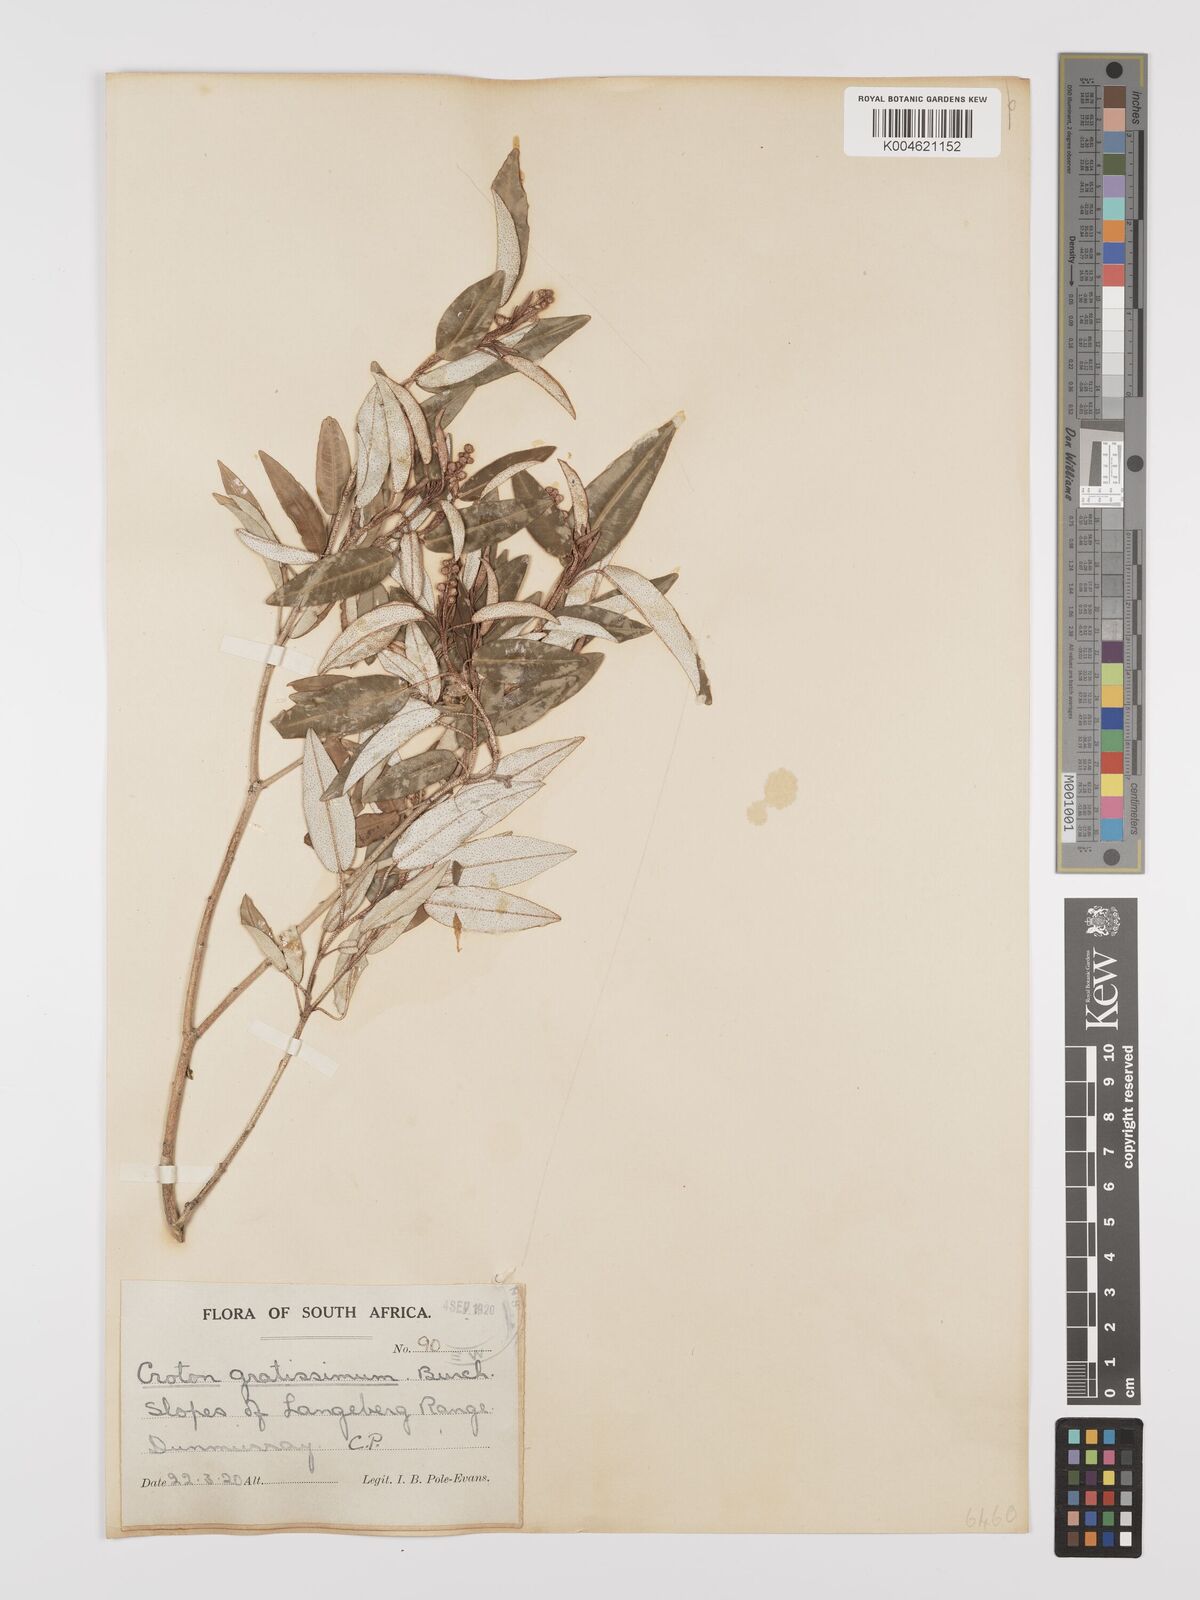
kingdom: Plantae
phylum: Tracheophyta
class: Magnoliopsida
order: Malpighiales
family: Euphorbiaceae
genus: Croton
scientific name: Croton gratissimus
